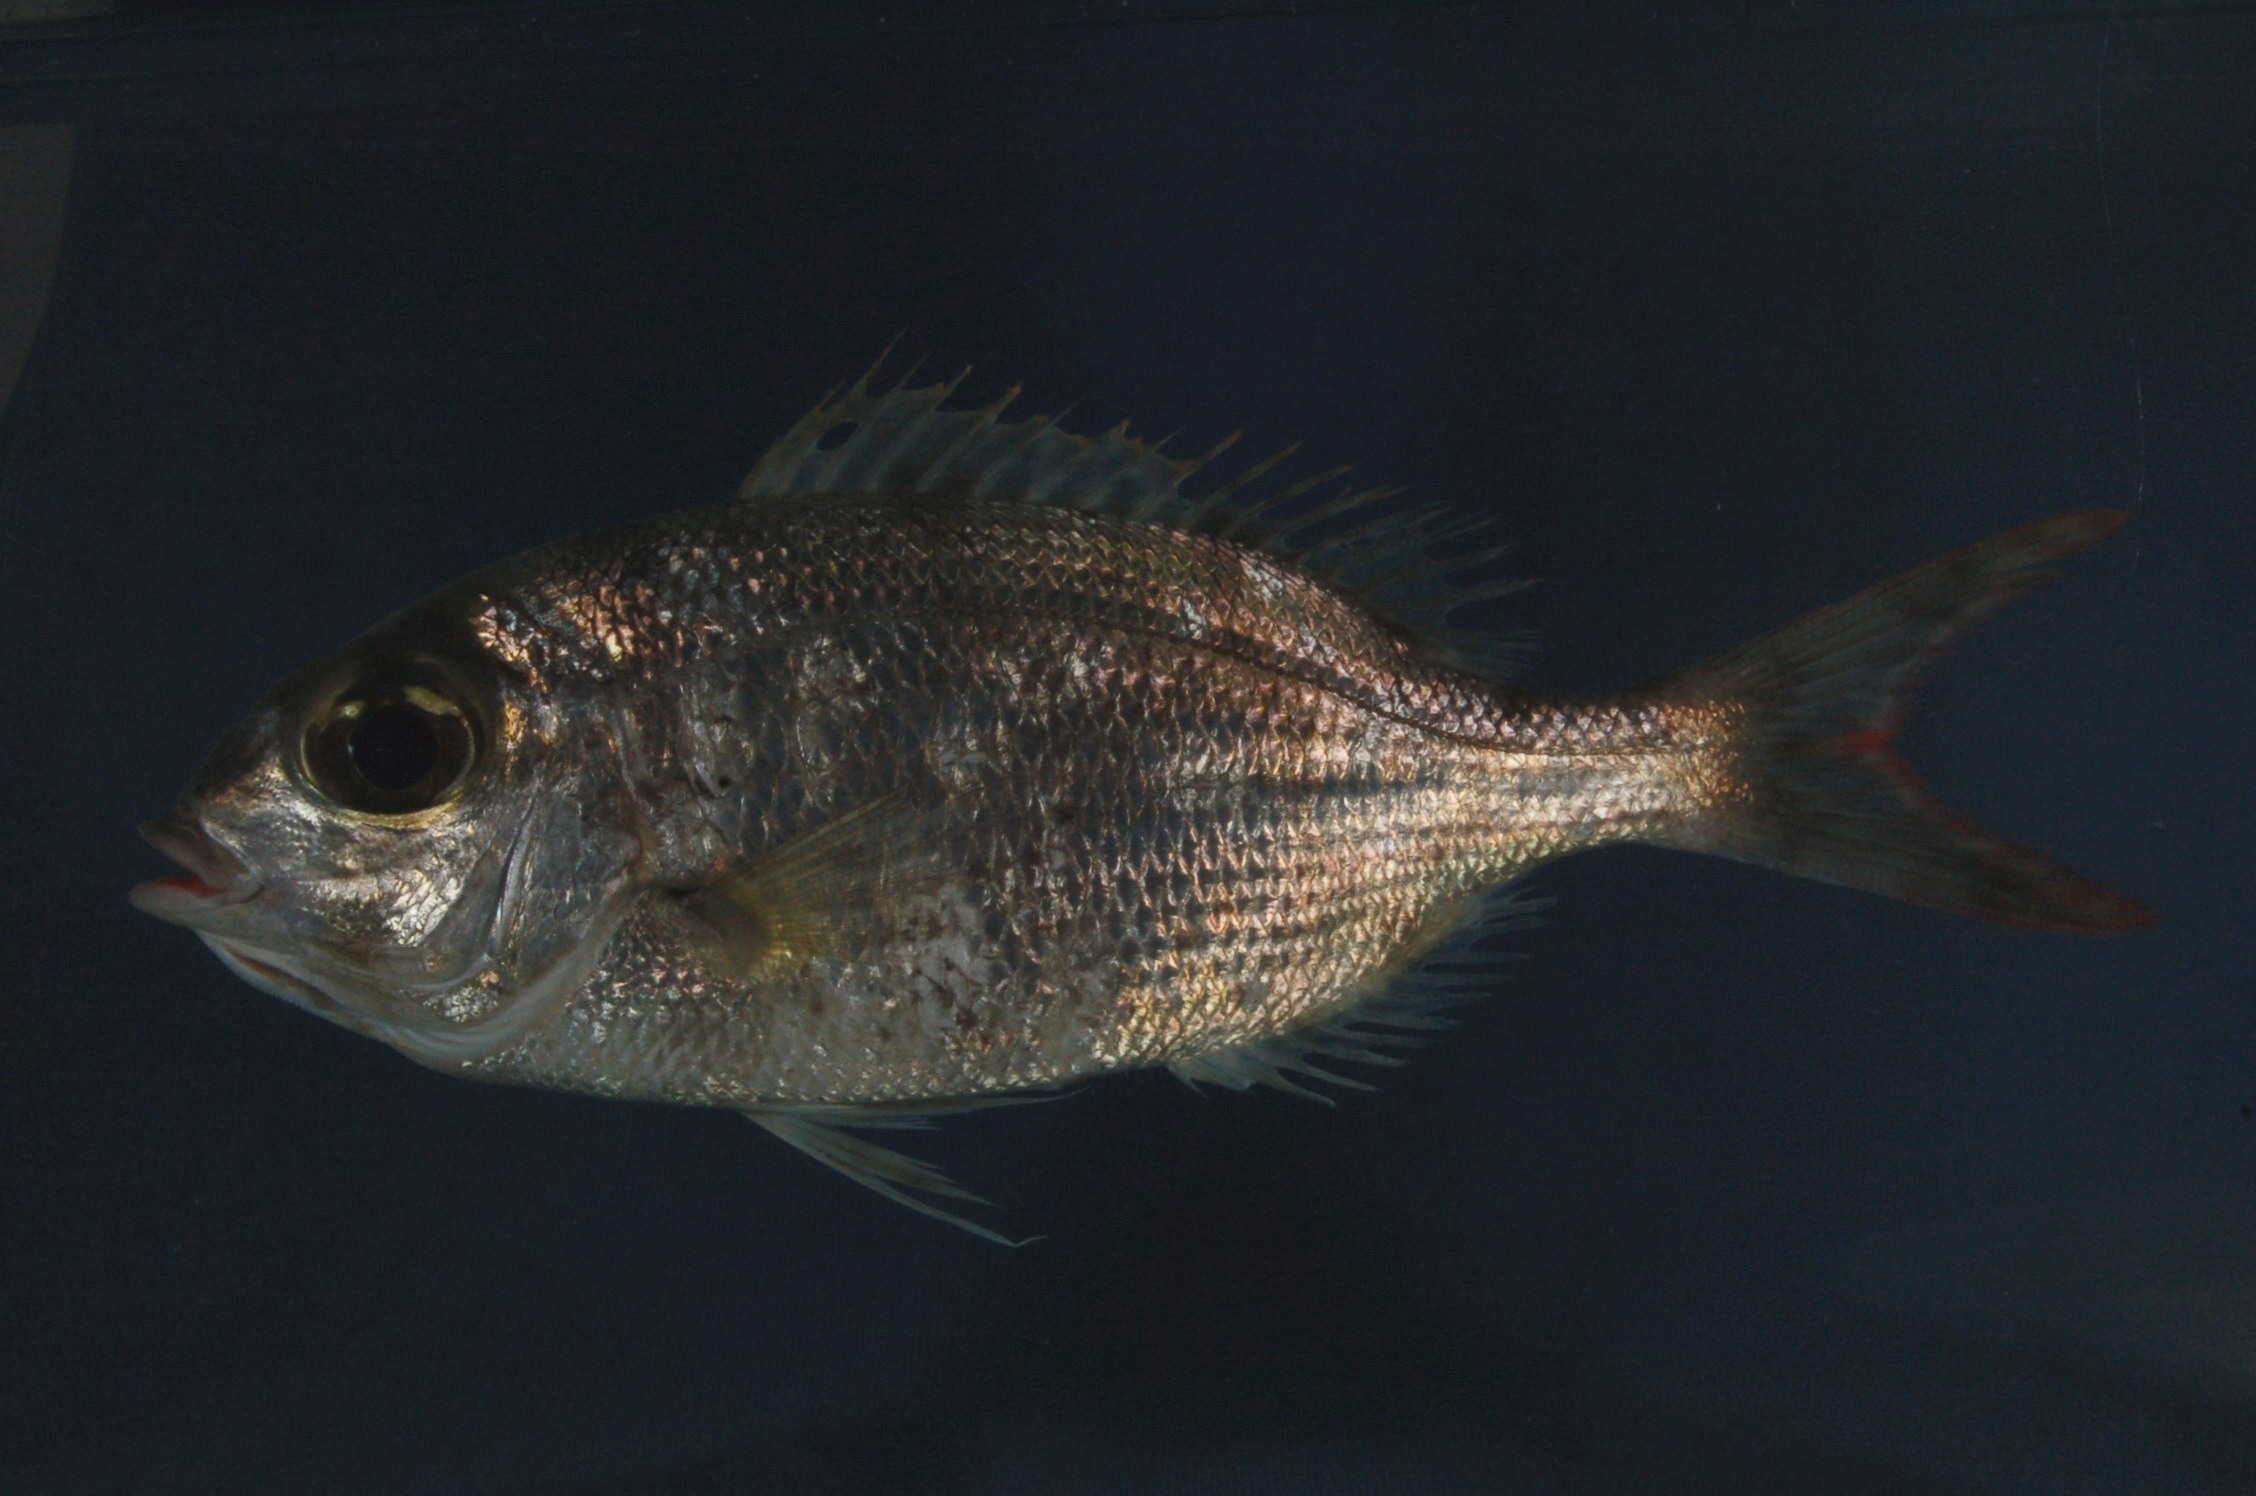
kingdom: Animalia
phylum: Chordata
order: Perciformes
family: Lethrinidae
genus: Gymnocranius
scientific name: Gymnocranius grandoculis
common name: Blue-lined large-eye bream
